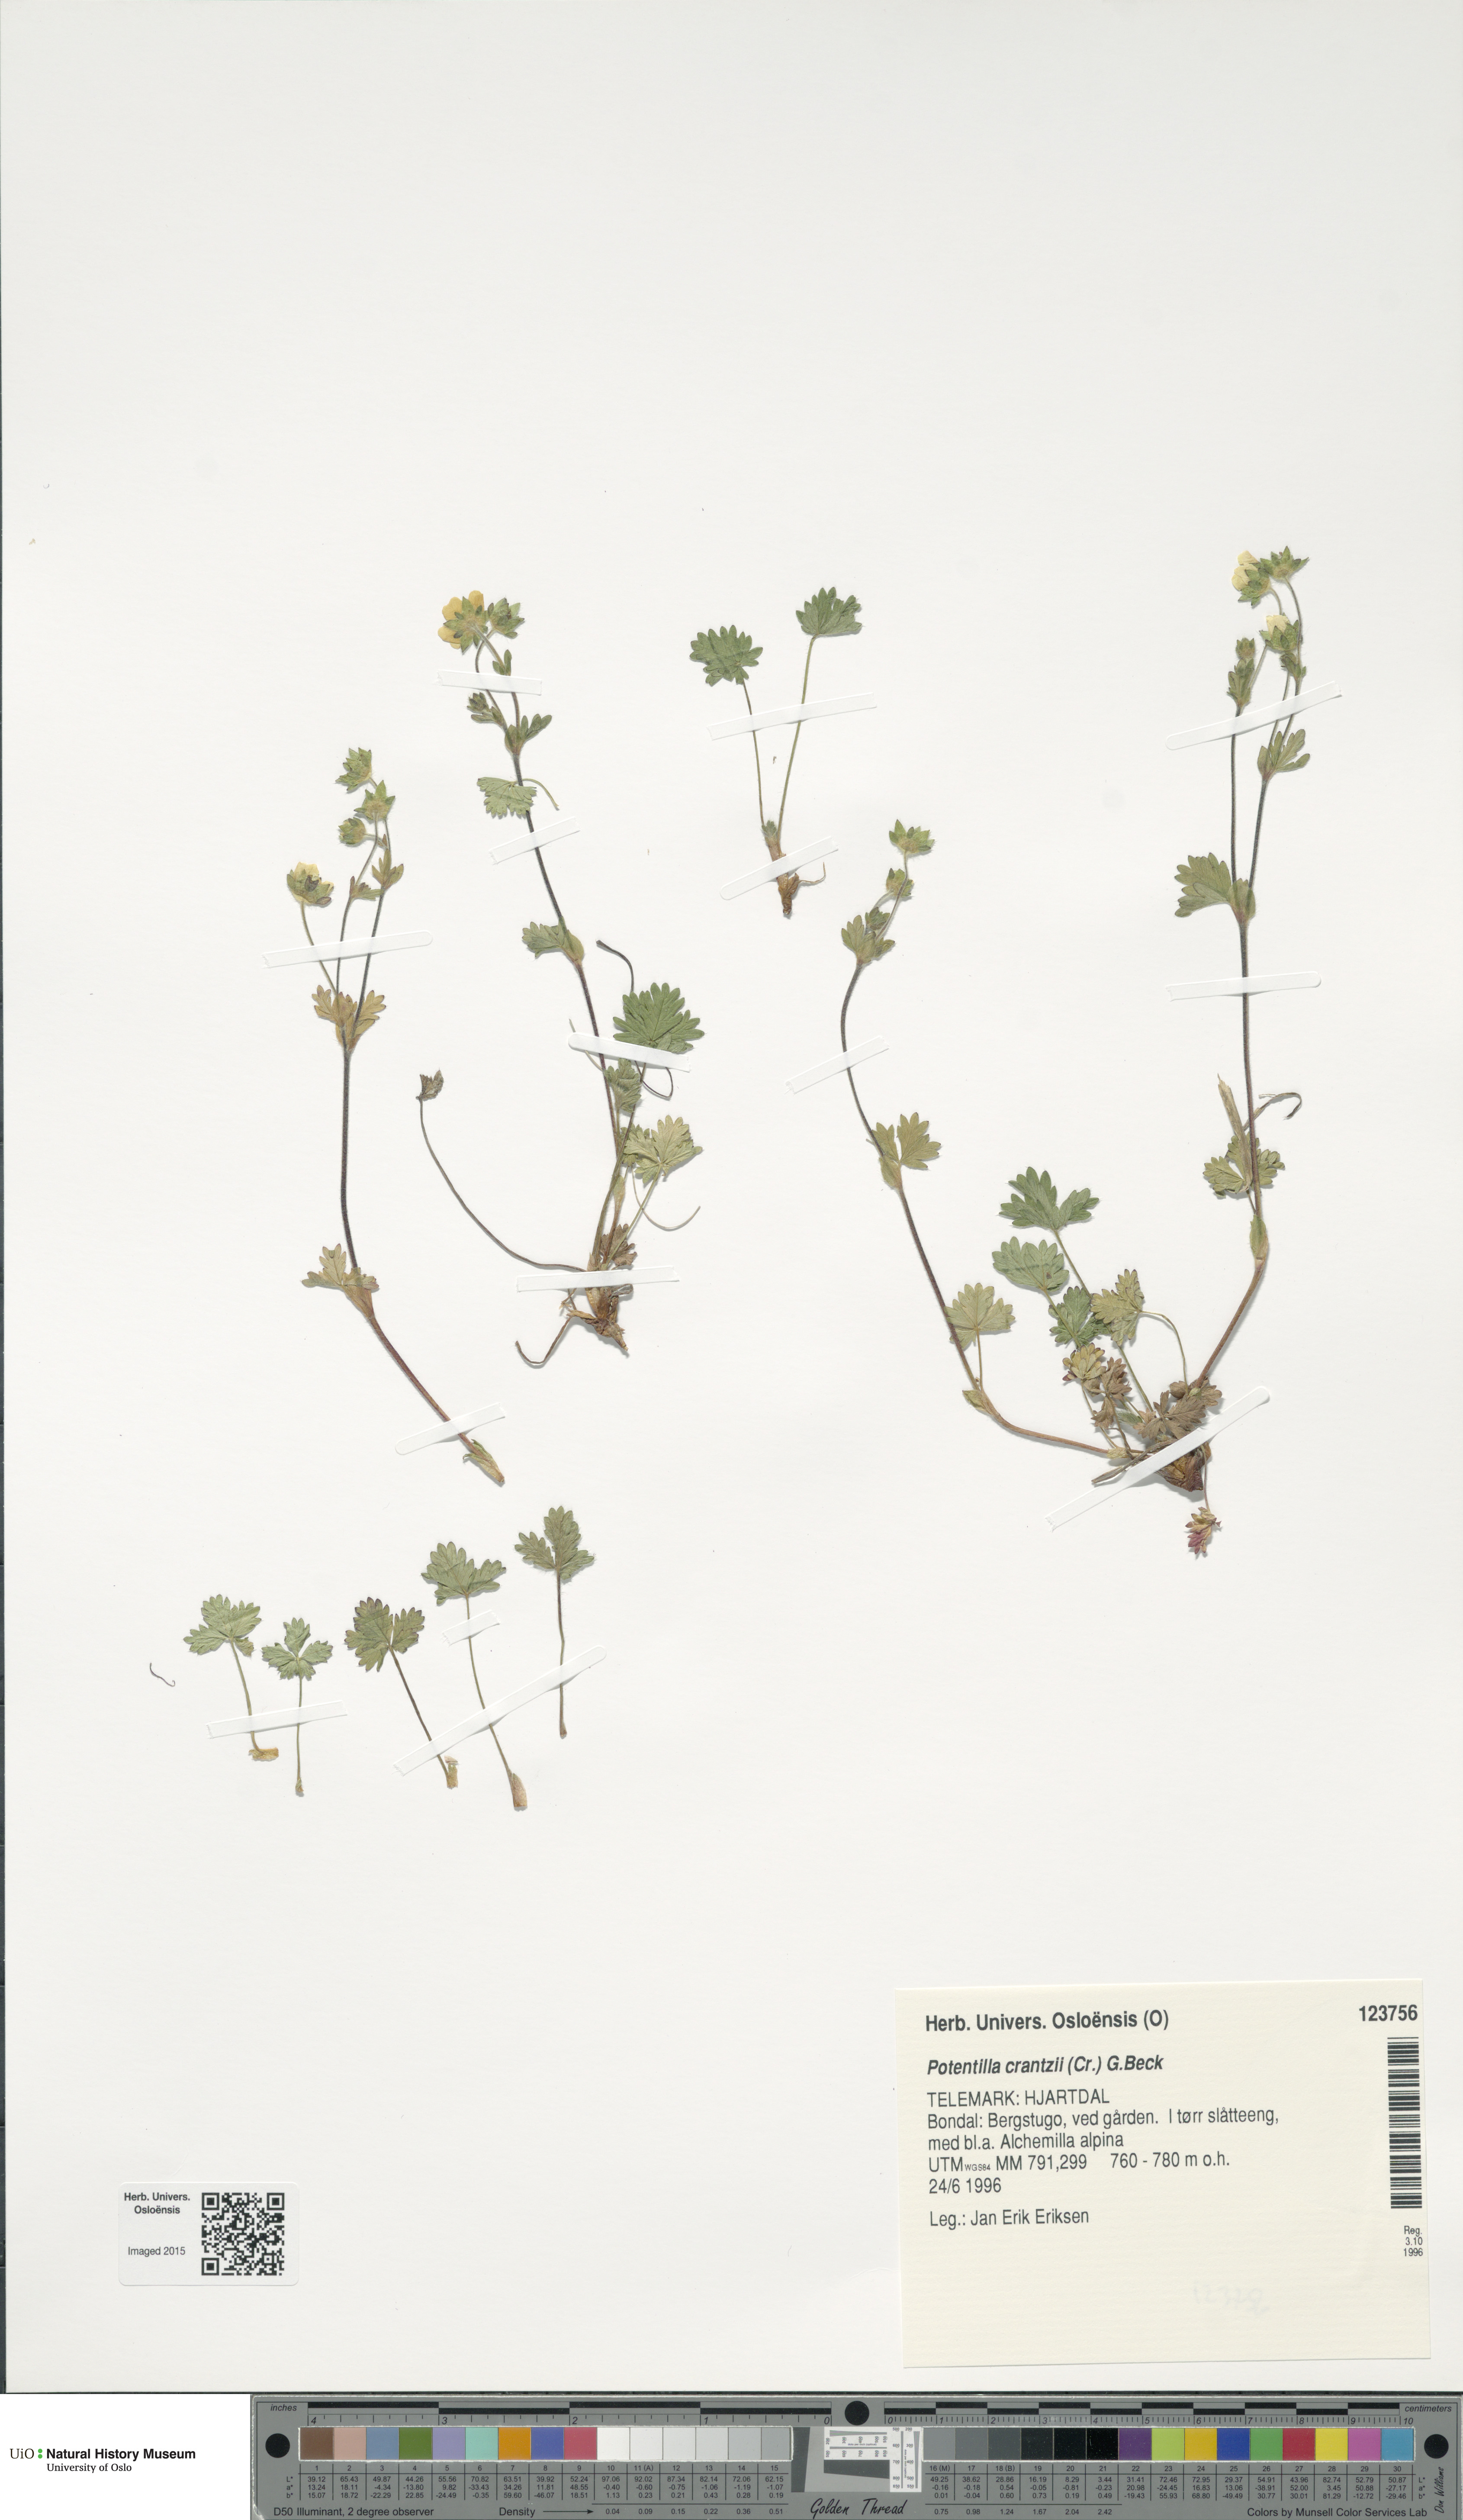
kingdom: Plantae
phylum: Tracheophyta
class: Magnoliopsida
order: Rosales
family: Rosaceae
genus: Potentilla
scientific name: Potentilla crantzii
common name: Alpine cinquefoil
